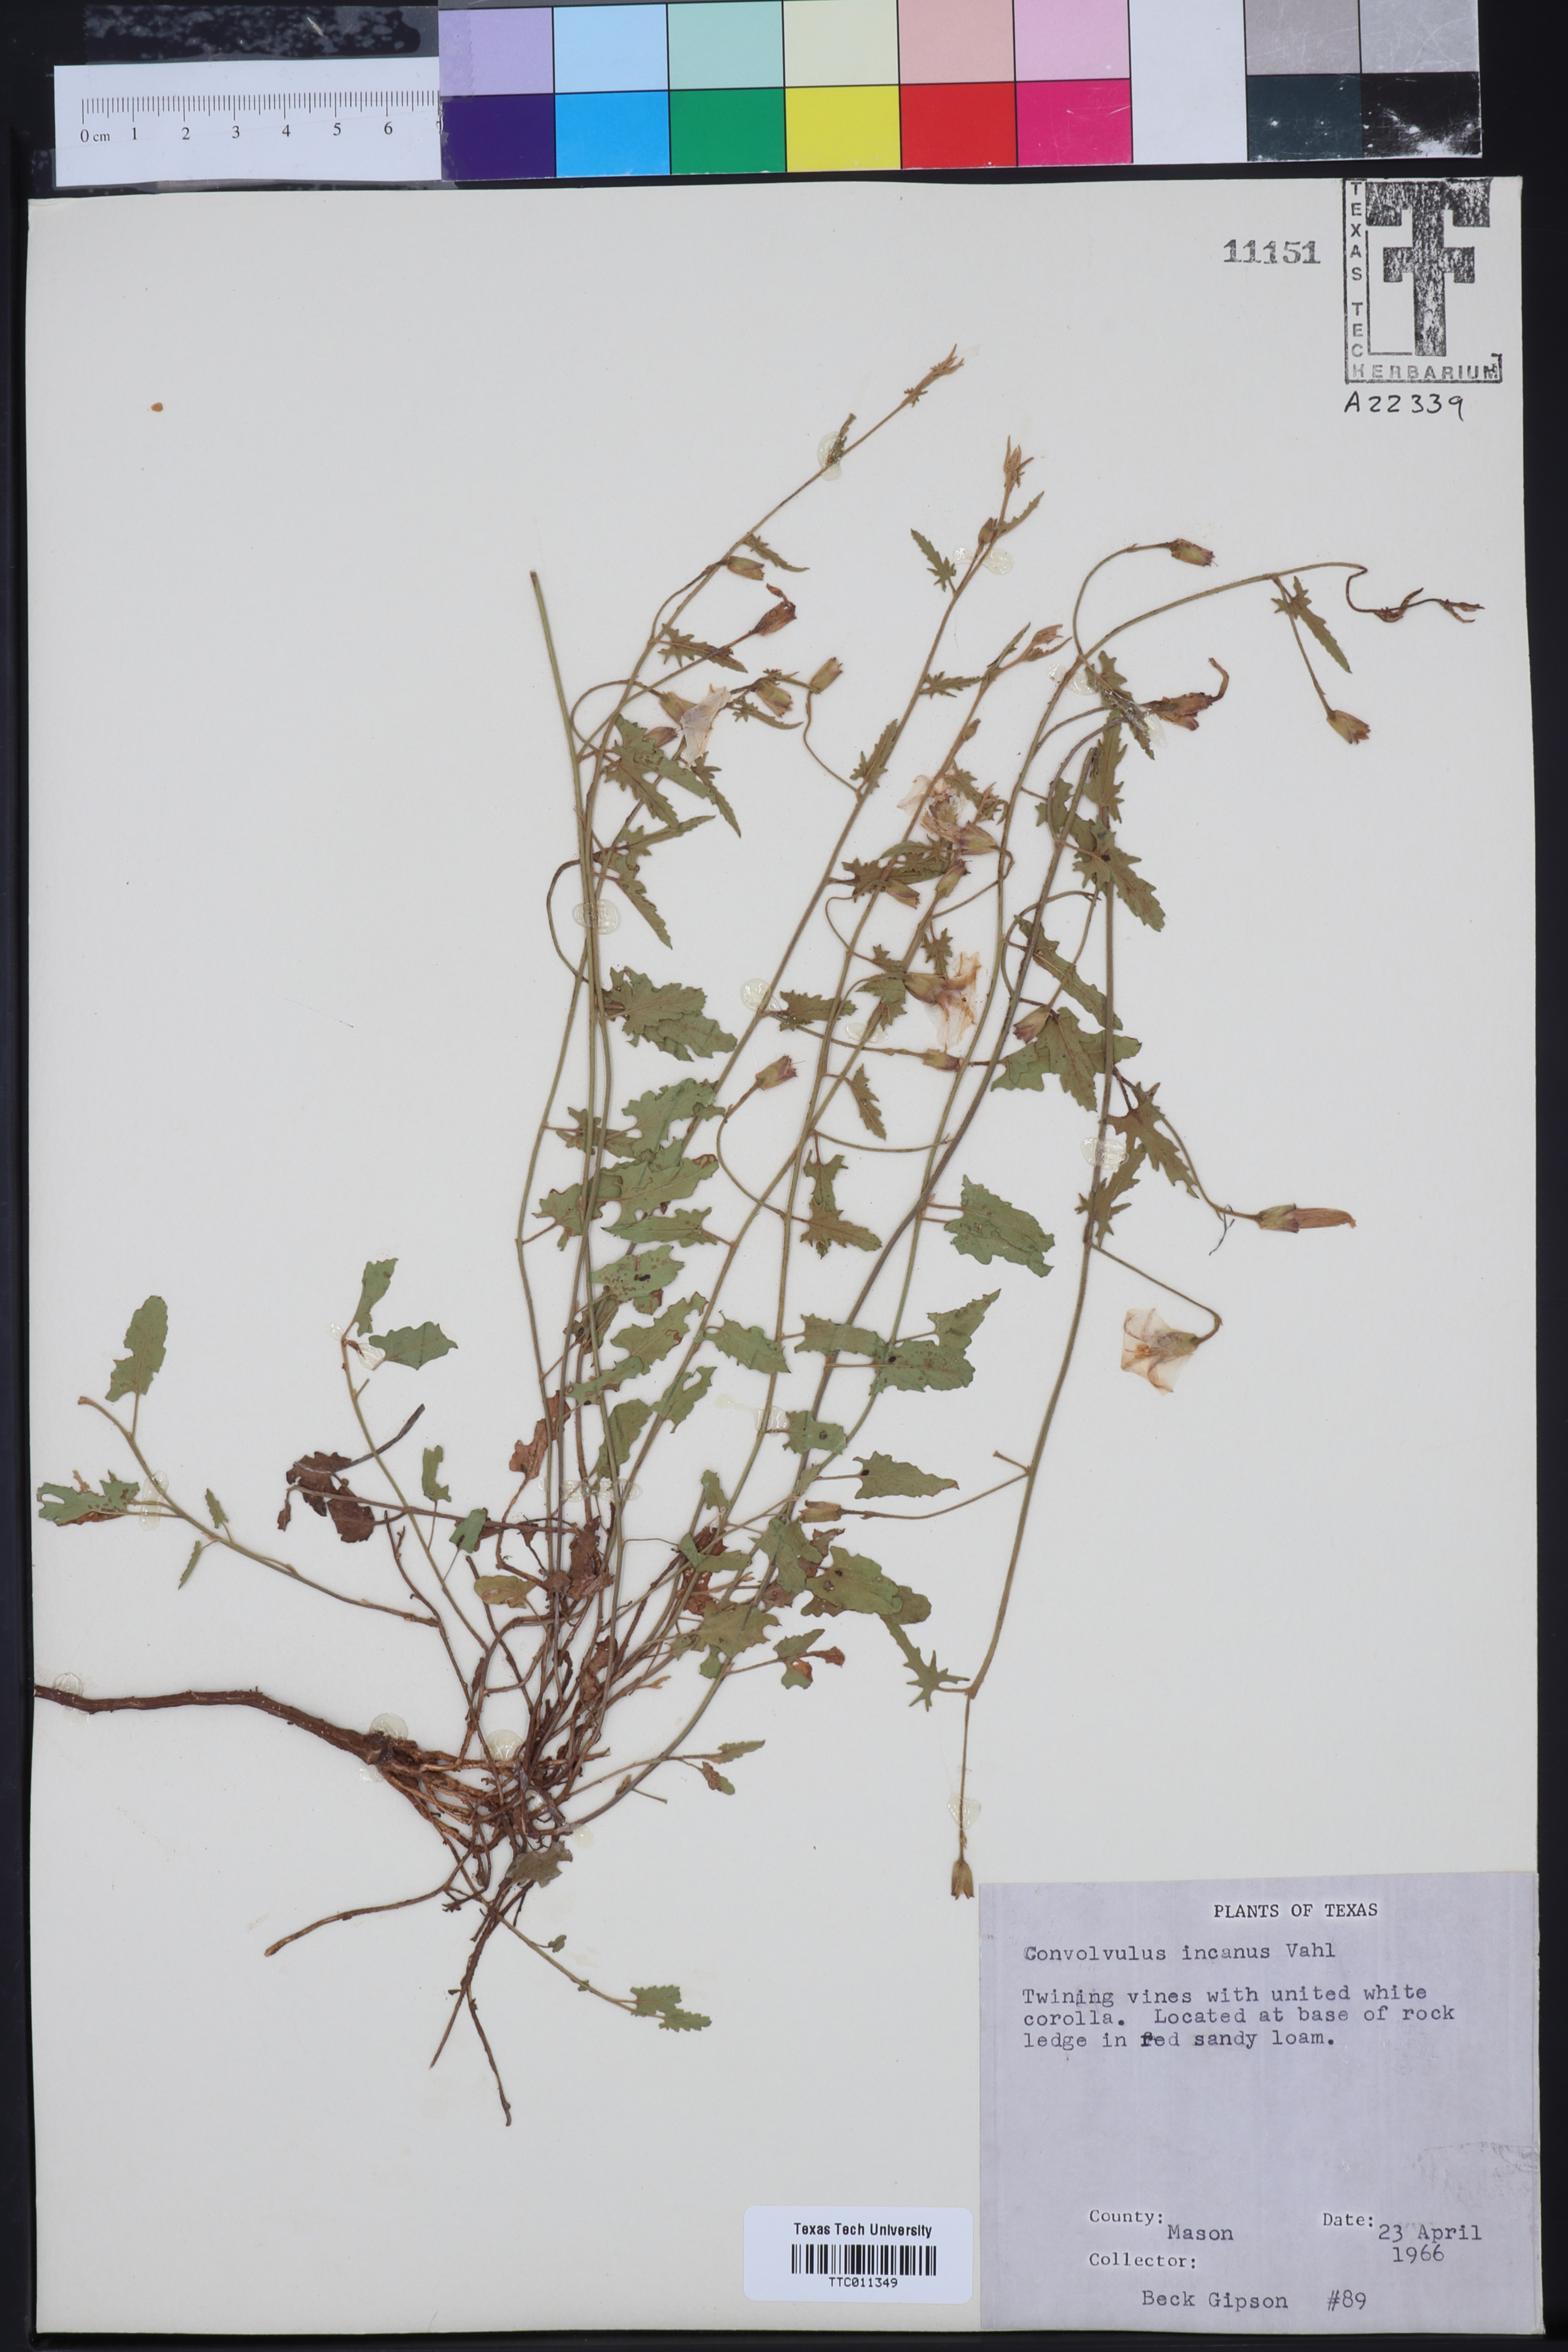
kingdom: Plantae
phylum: Tracheophyta
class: Magnoliopsida
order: Solanales
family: Convolvulaceae
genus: Convolvulus
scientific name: Convolvulus hermanniae
